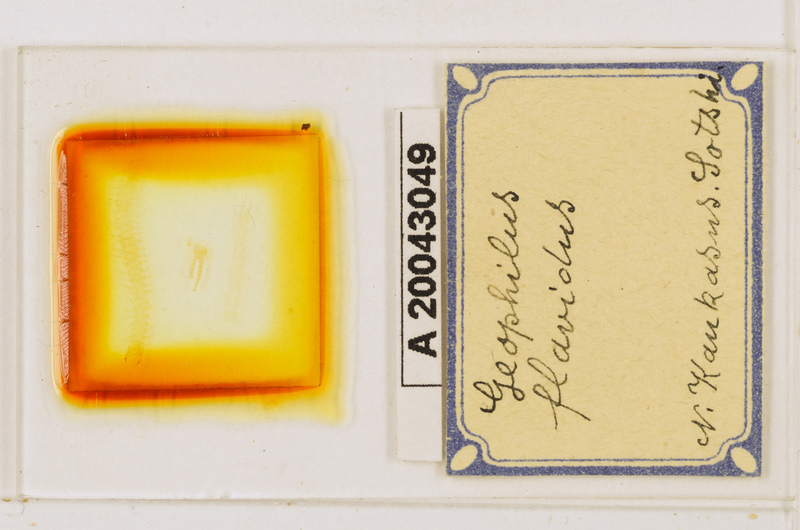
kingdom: Animalia
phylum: Arthropoda
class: Chilopoda
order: Geophilomorpha
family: Geophilidae
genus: Clinopodes
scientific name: Clinopodes flavidus
